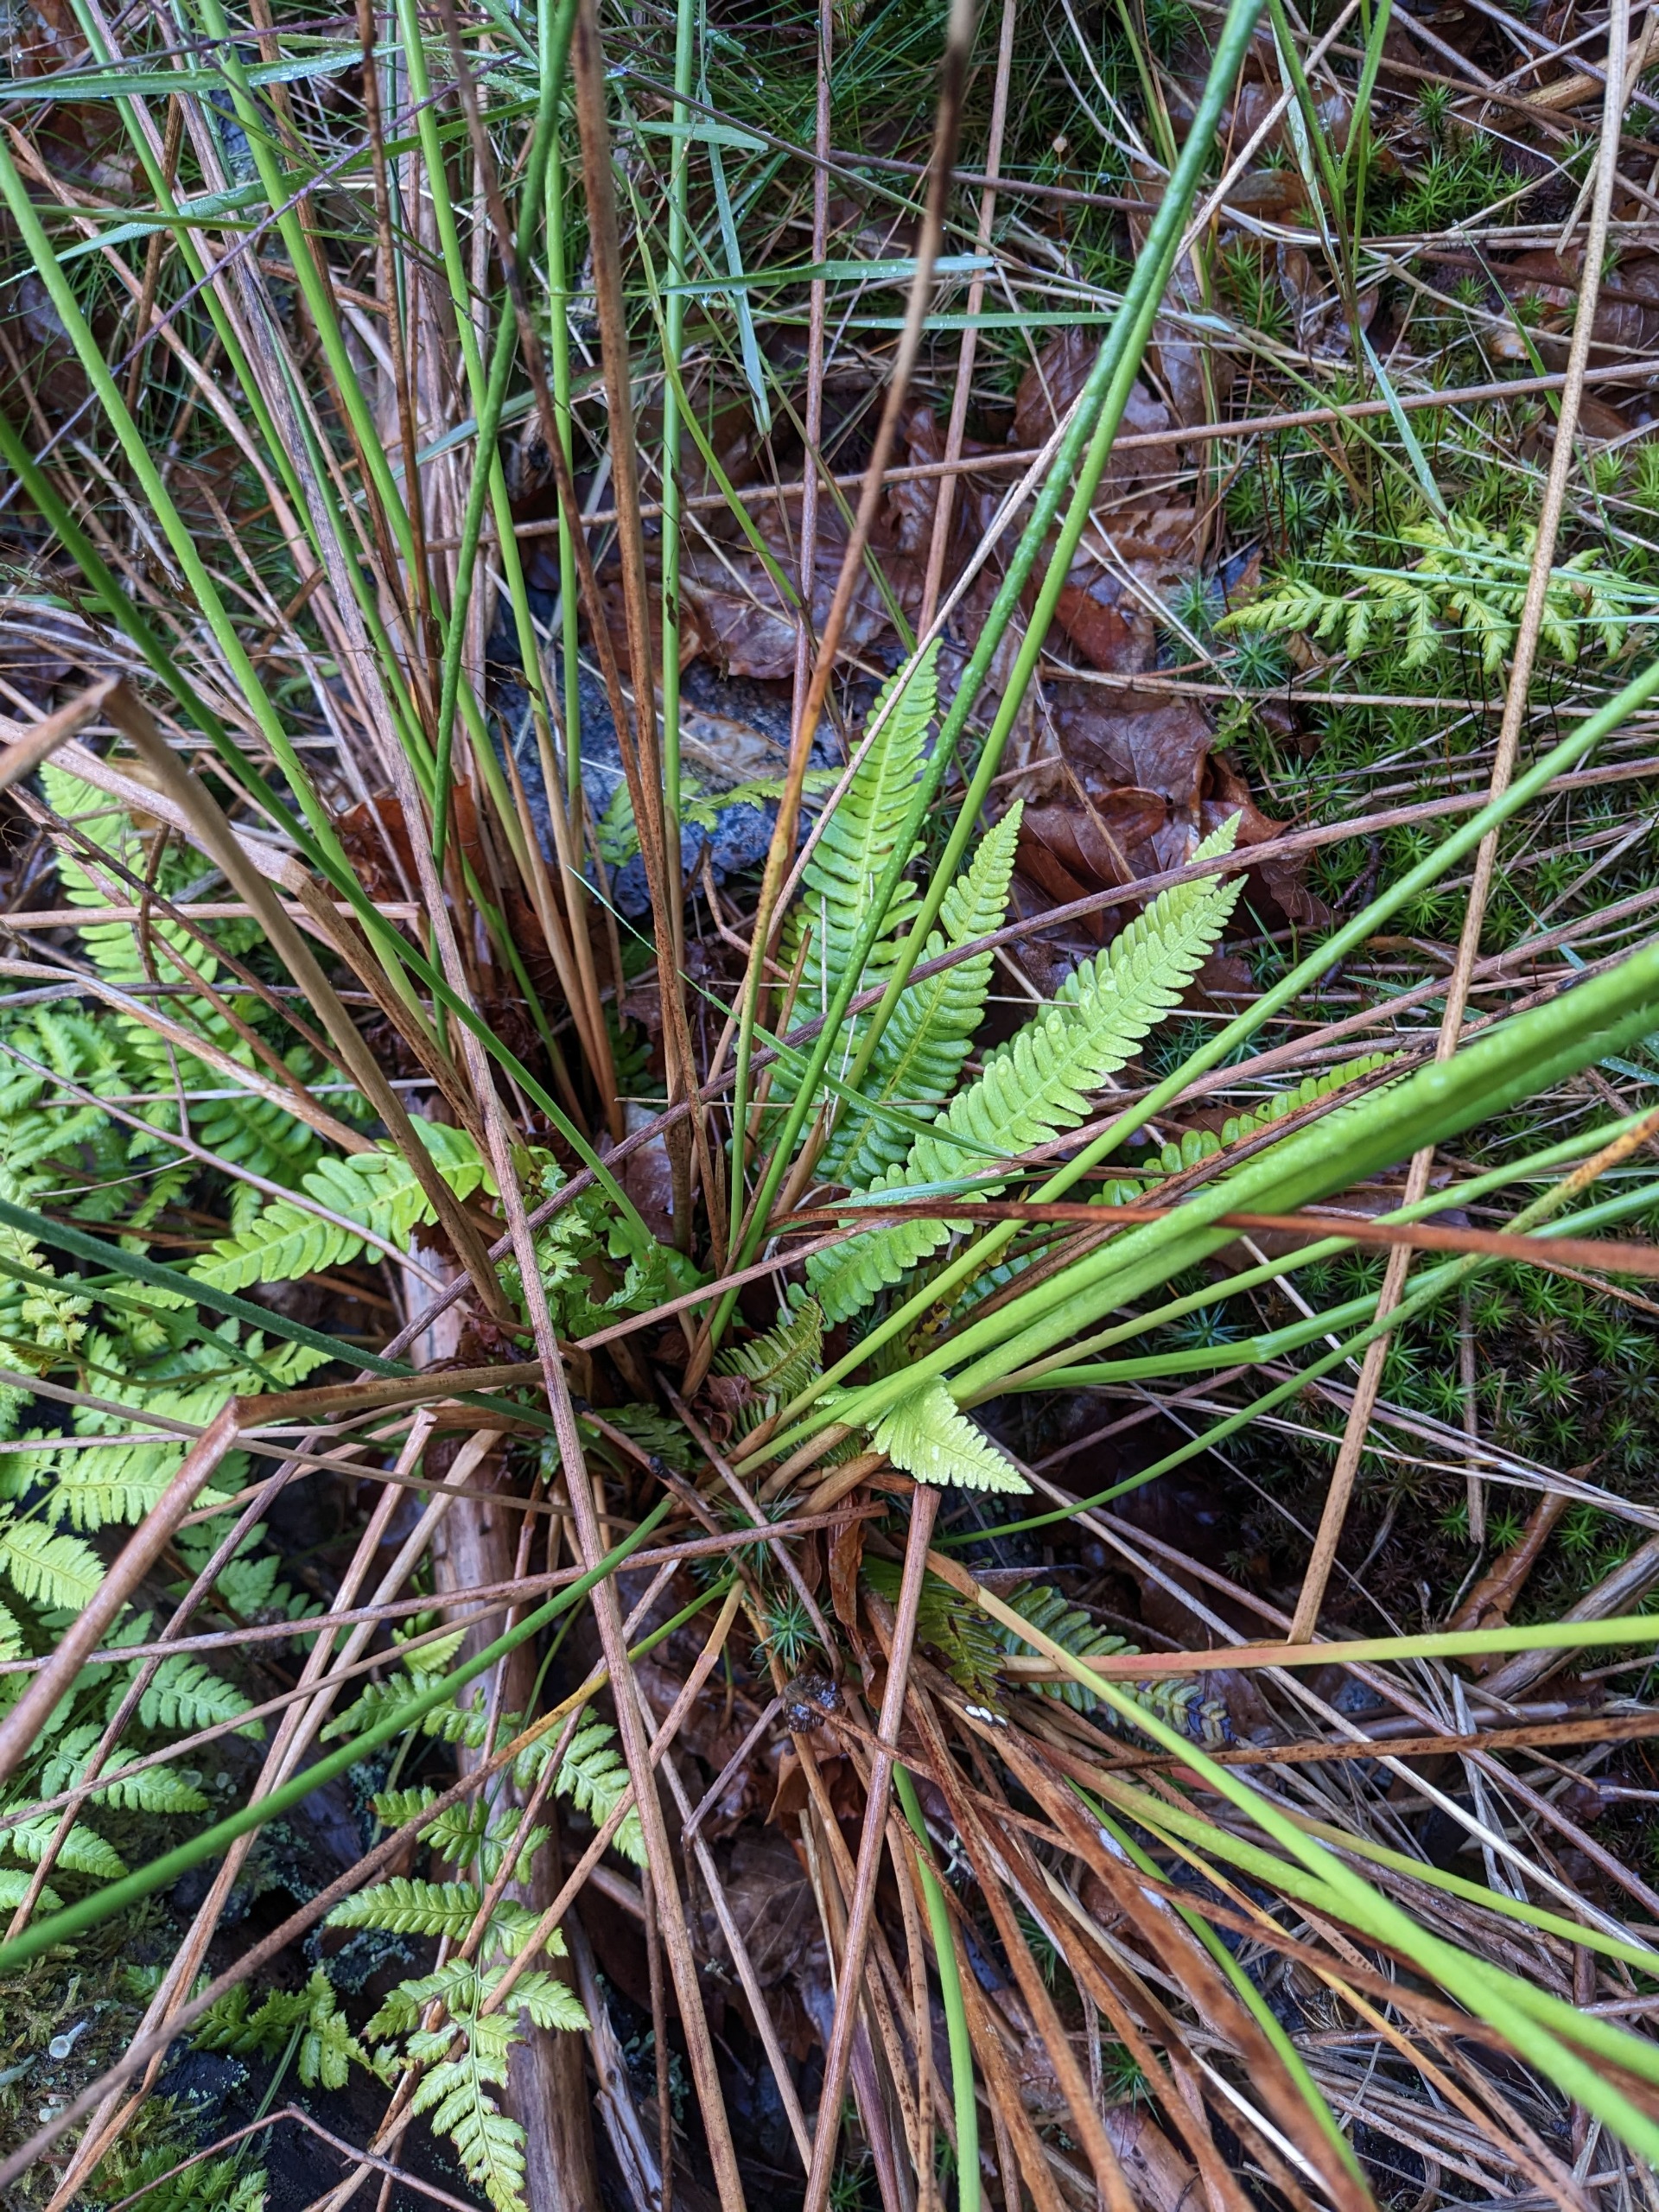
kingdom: Plantae
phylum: Tracheophyta
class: Polypodiopsida
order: Polypodiales
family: Blechnaceae
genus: Struthiopteris
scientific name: Struthiopteris spicant
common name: Kambregne
